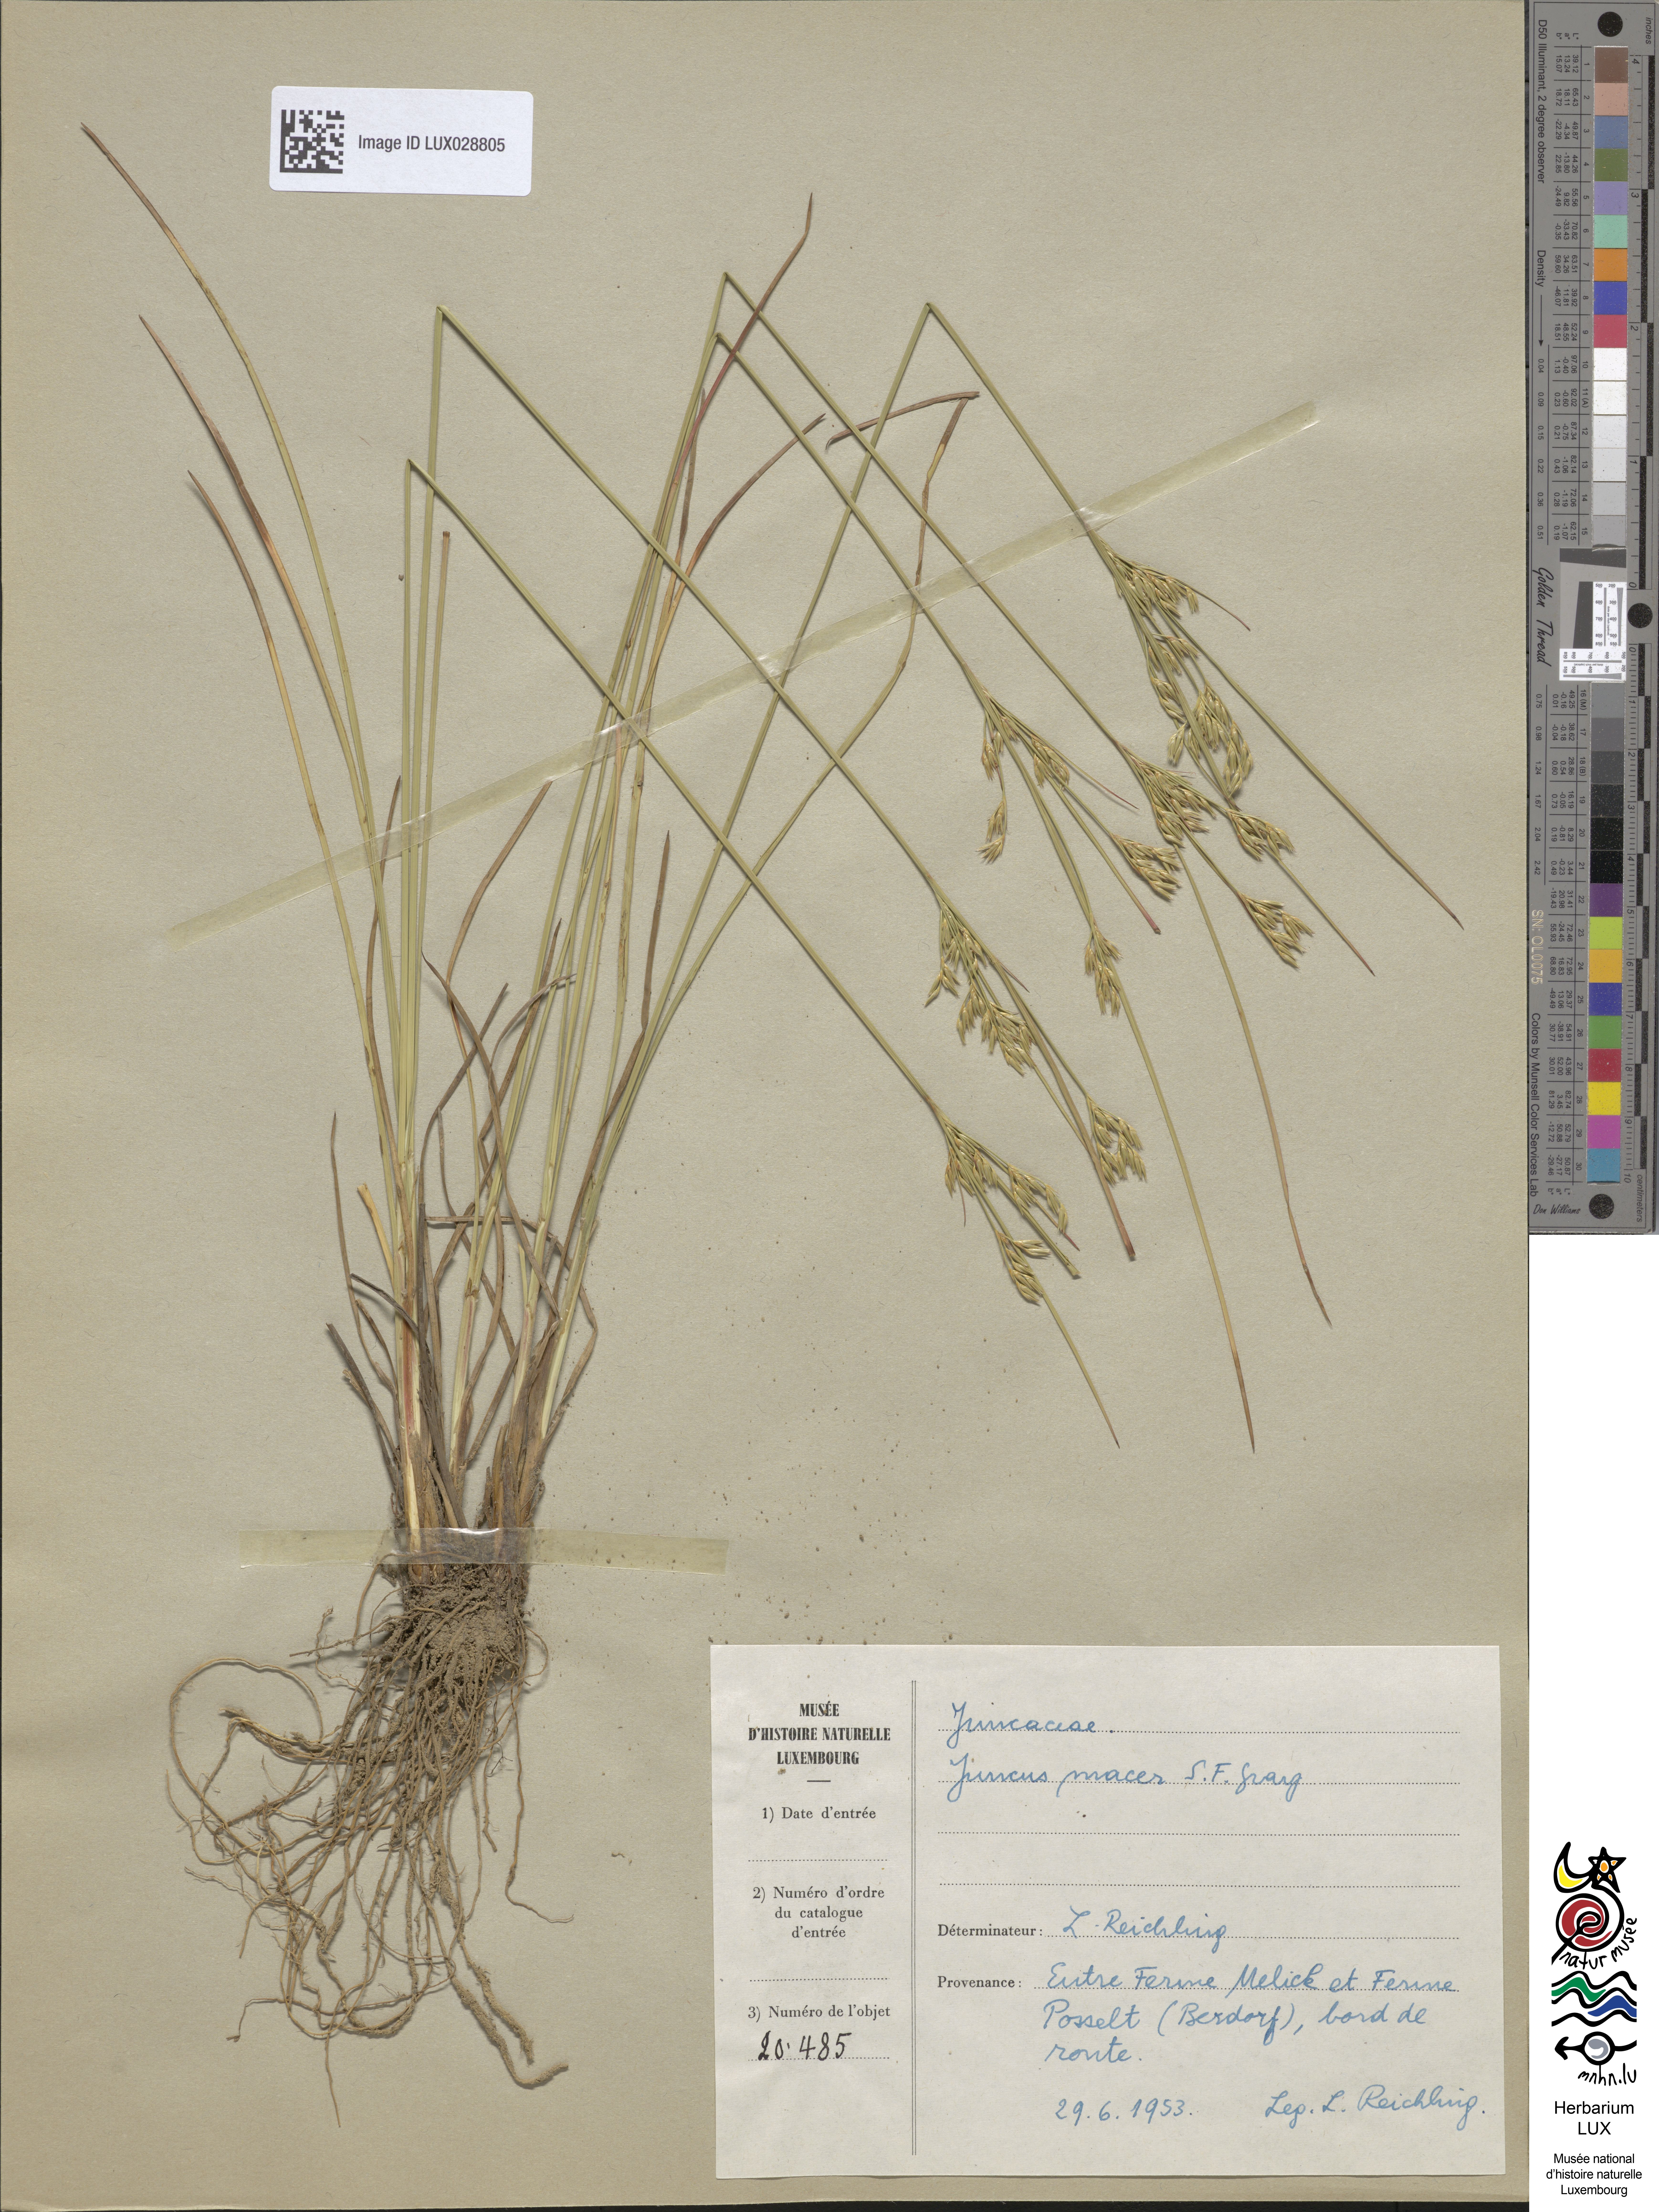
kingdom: Plantae
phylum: Tracheophyta
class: Liliopsida
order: Poales
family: Juncaceae
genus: Juncus
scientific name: Juncus tenuis
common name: Slender rush
